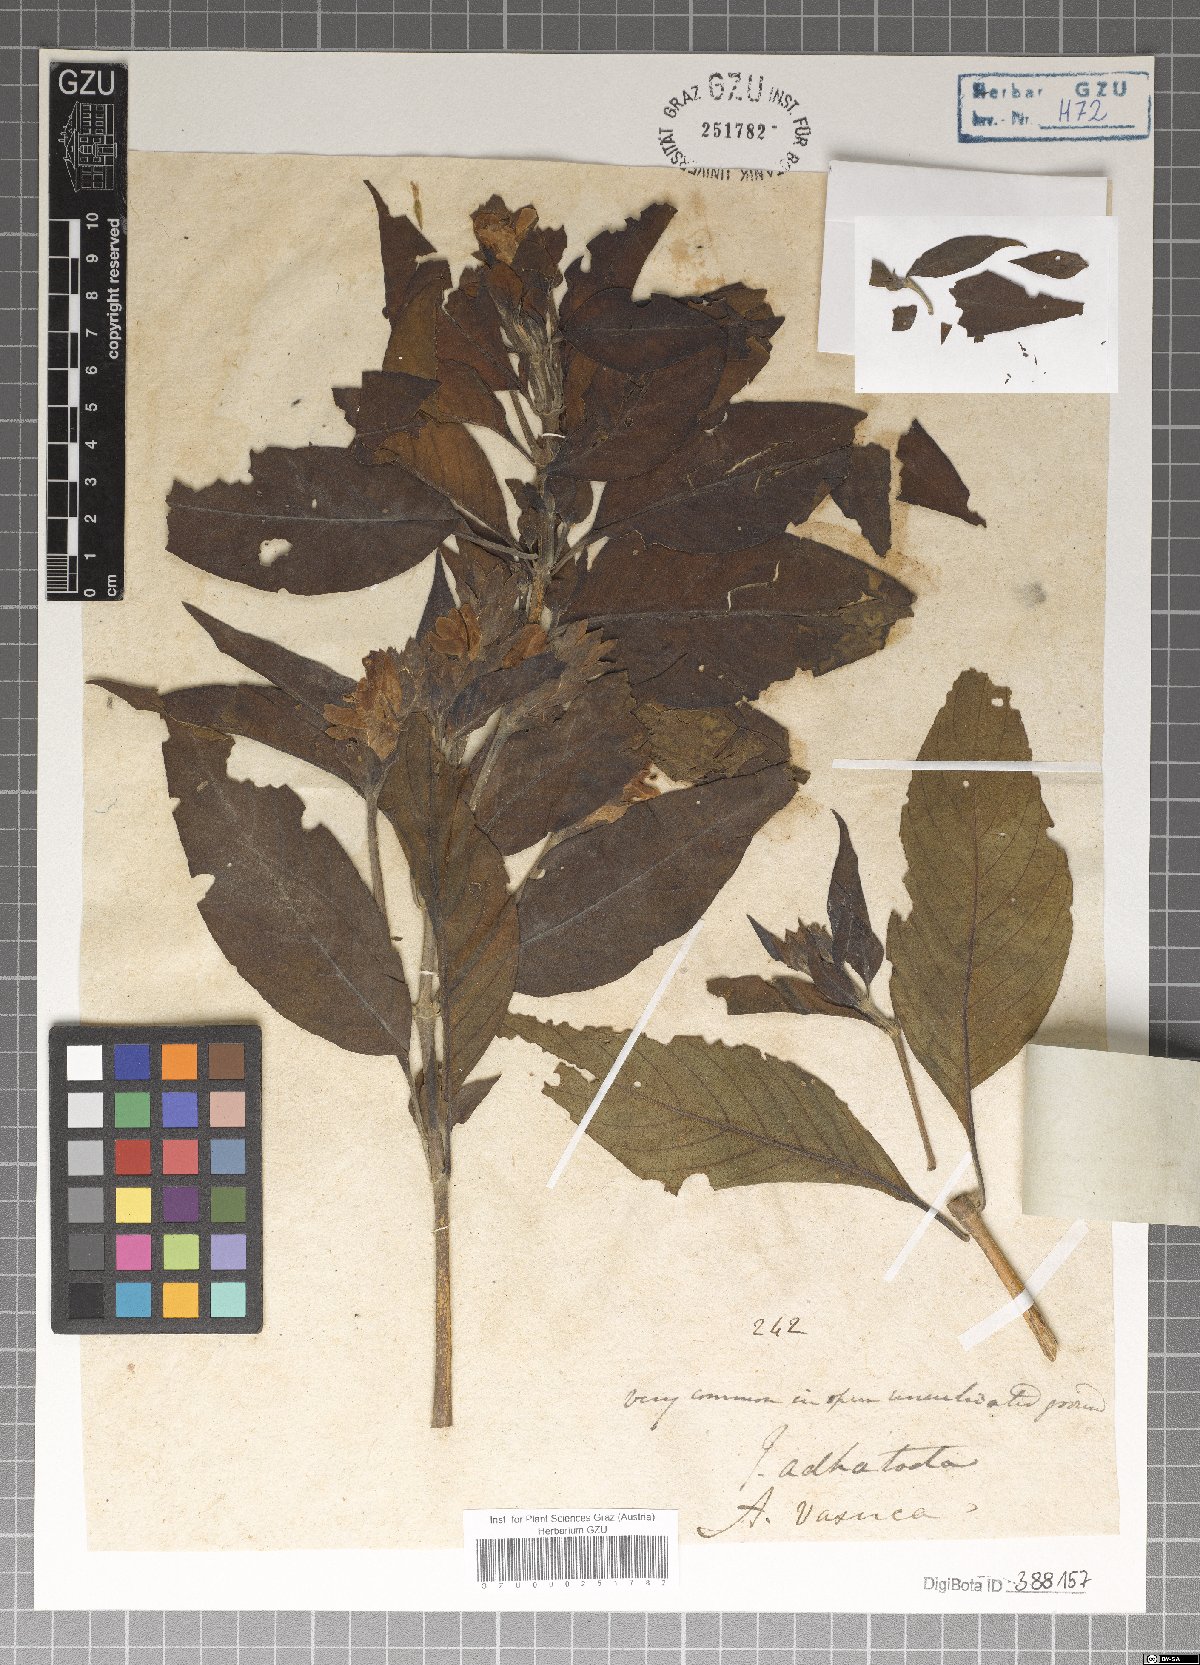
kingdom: Plantae
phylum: Tracheophyta
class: Magnoliopsida
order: Lamiales
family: Acanthaceae
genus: Justicia
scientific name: Justicia adhatoda
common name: Malabar nut
